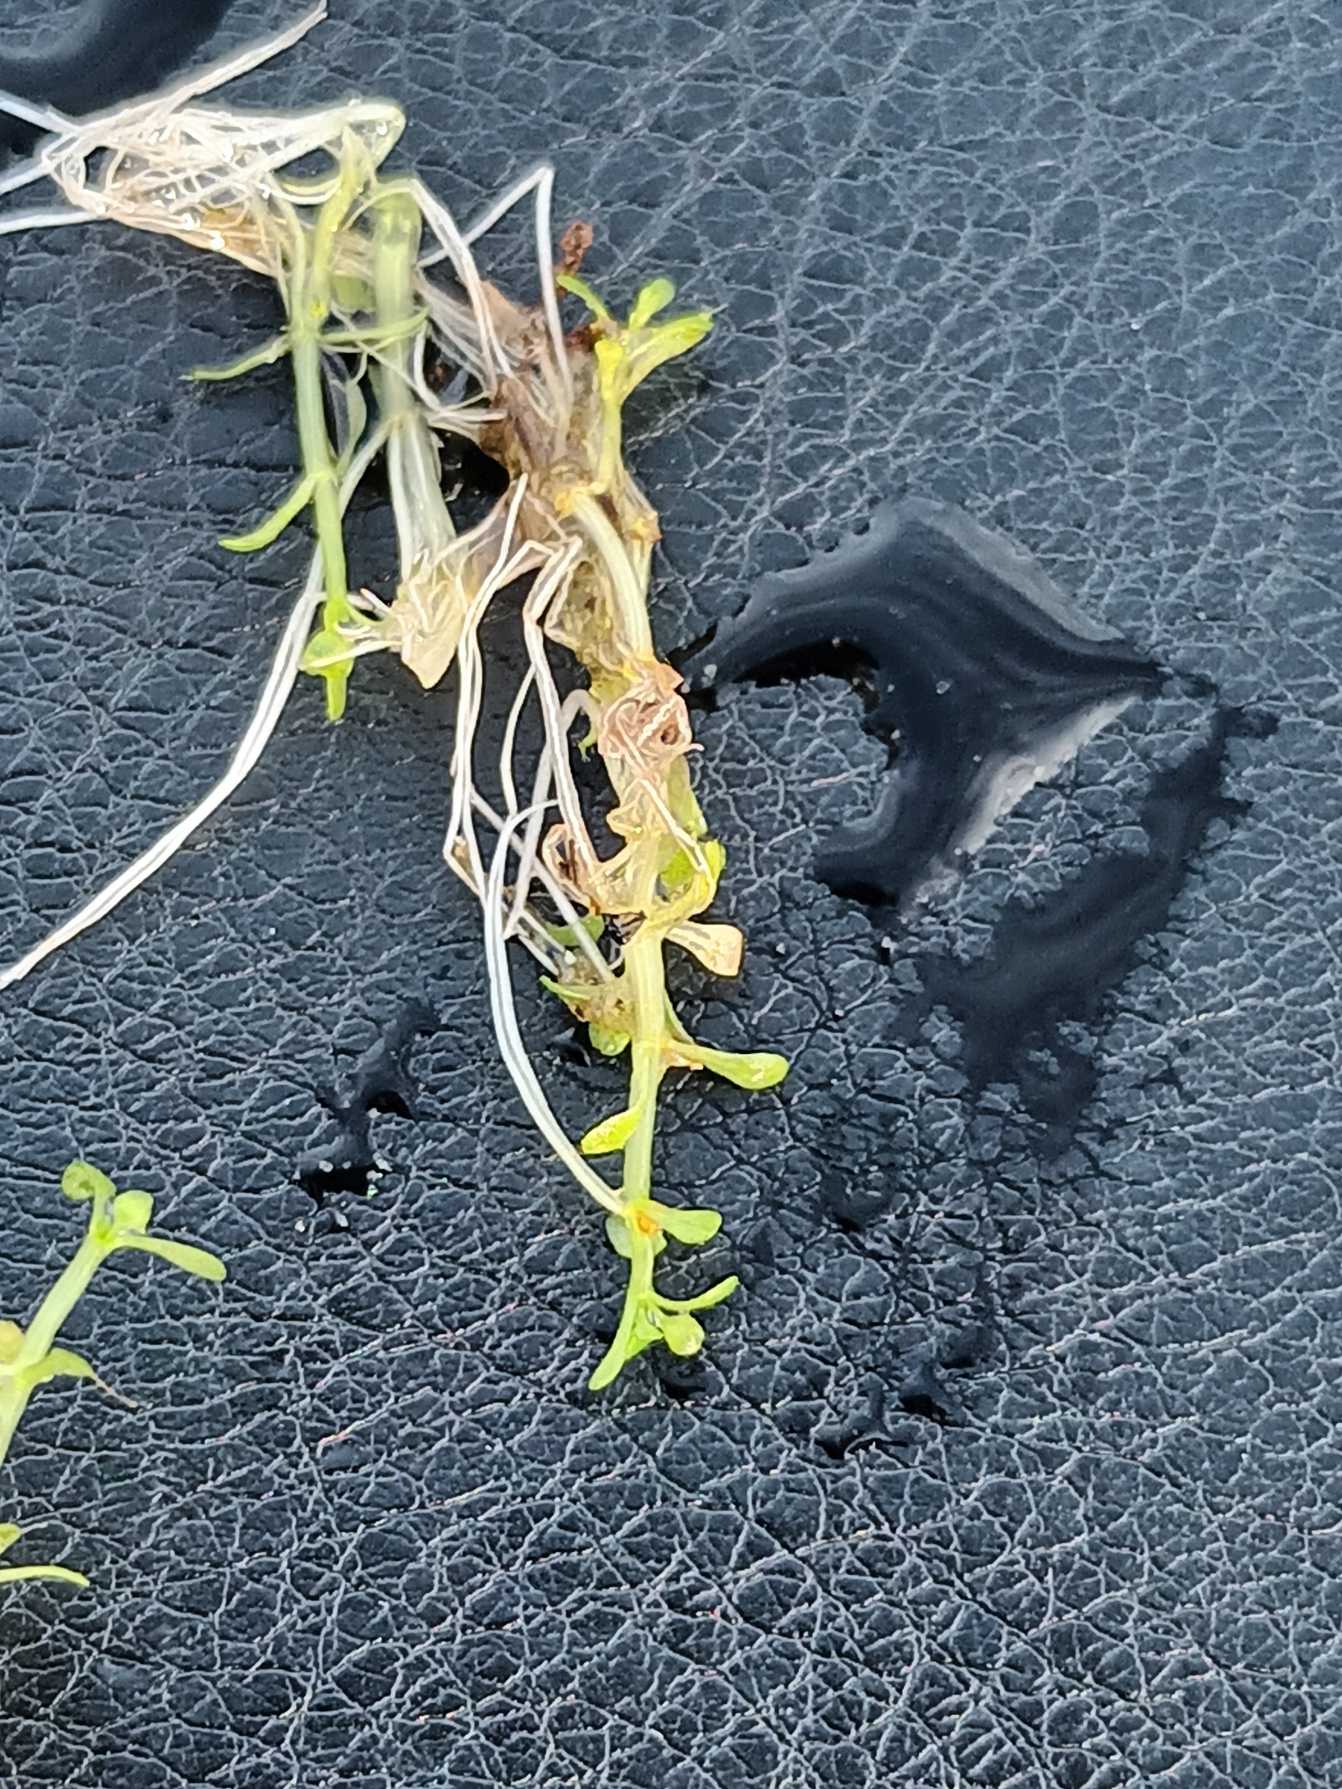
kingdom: Plantae
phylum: Tracheophyta
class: Magnoliopsida
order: Malpighiales
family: Elatinaceae
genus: Elatine
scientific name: Elatine hexandra
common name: Sekshannet bækarve
